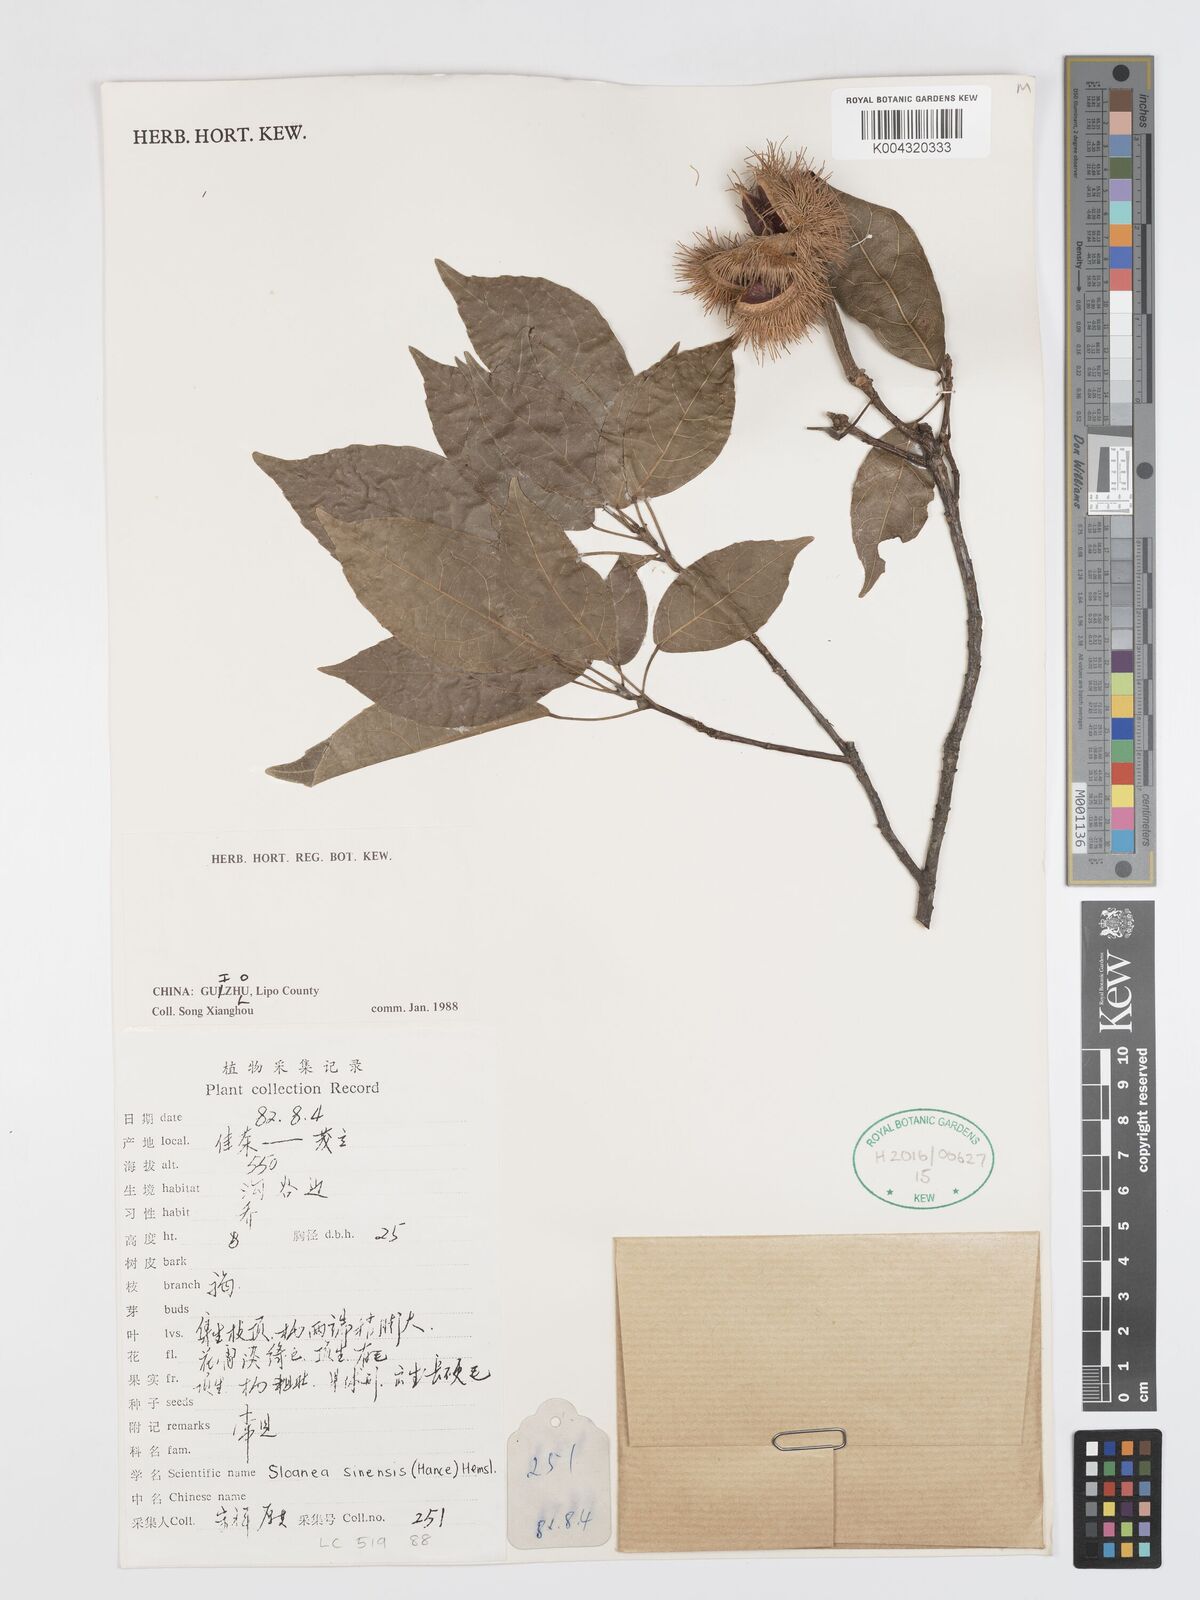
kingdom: Plantae
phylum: Tracheophyta
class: Magnoliopsida
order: Oxalidales
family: Elaeocarpaceae
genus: Sloanea
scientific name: Sloanea sinensis
